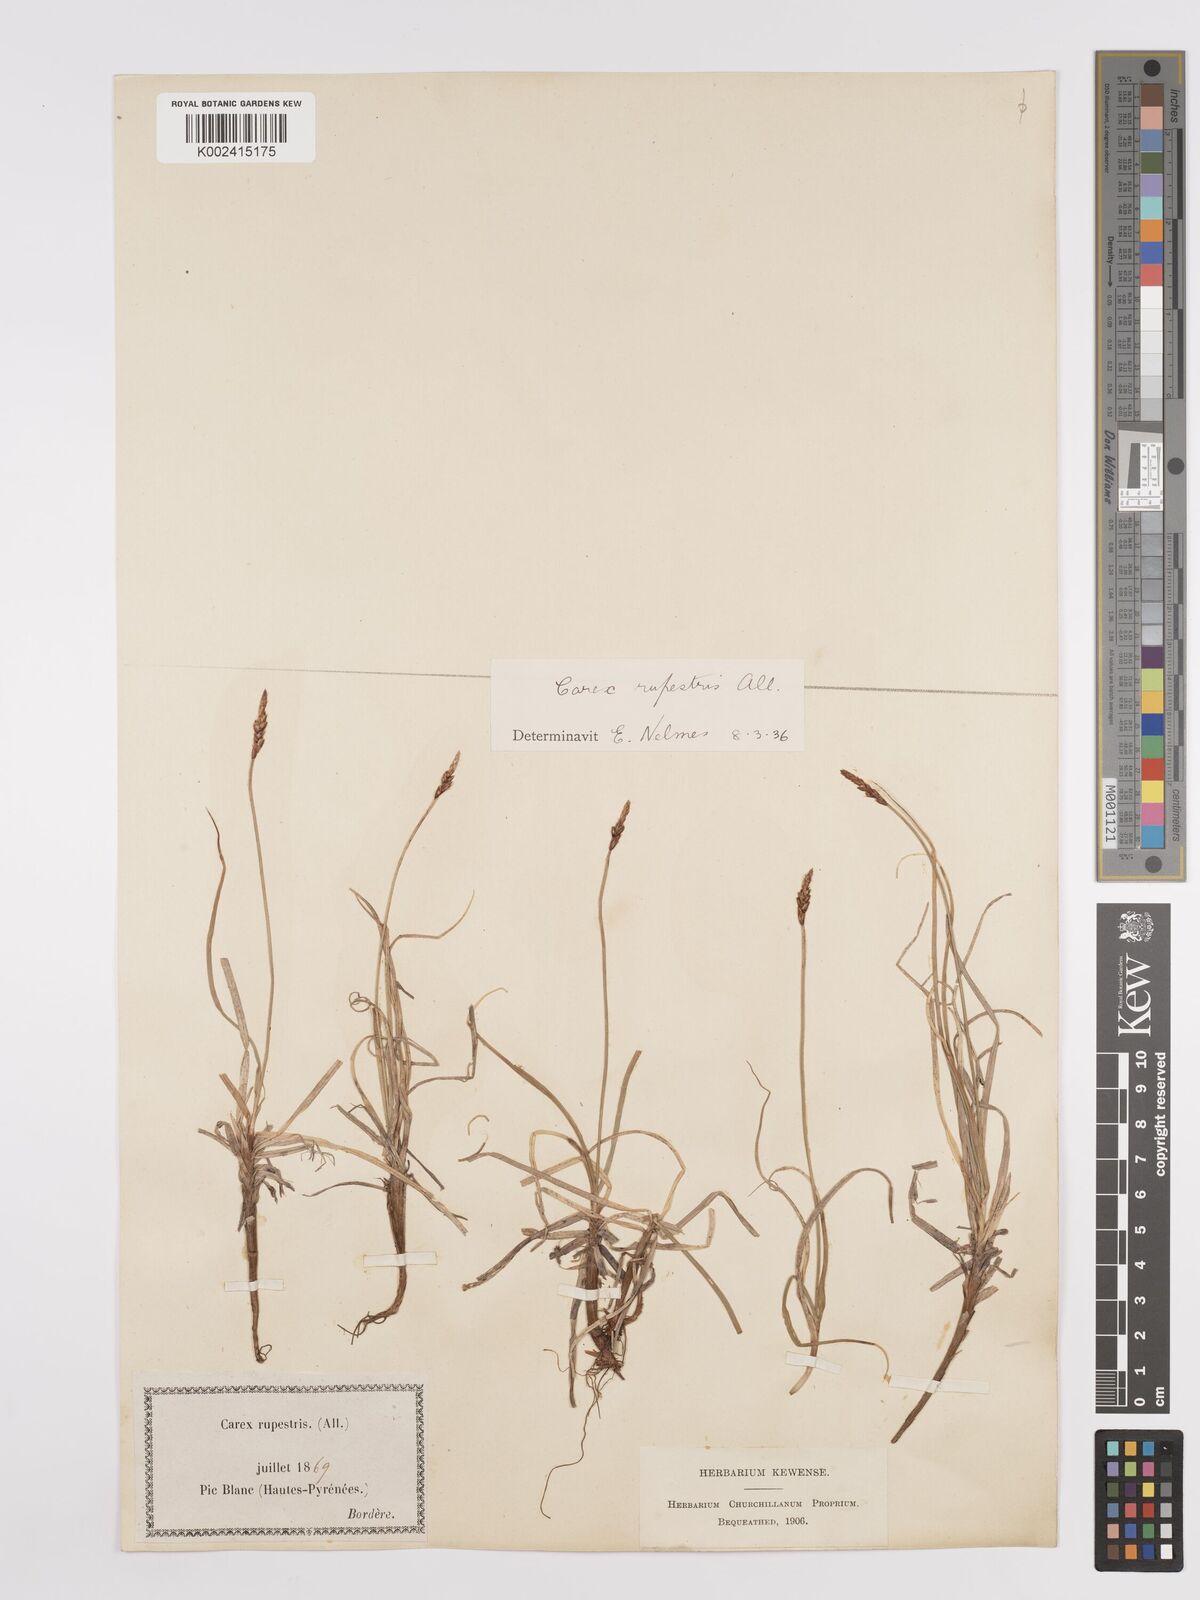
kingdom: Plantae
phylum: Tracheophyta
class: Liliopsida
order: Poales
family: Cyperaceae
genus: Carex
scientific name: Carex rupestris
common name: Rock sedge
